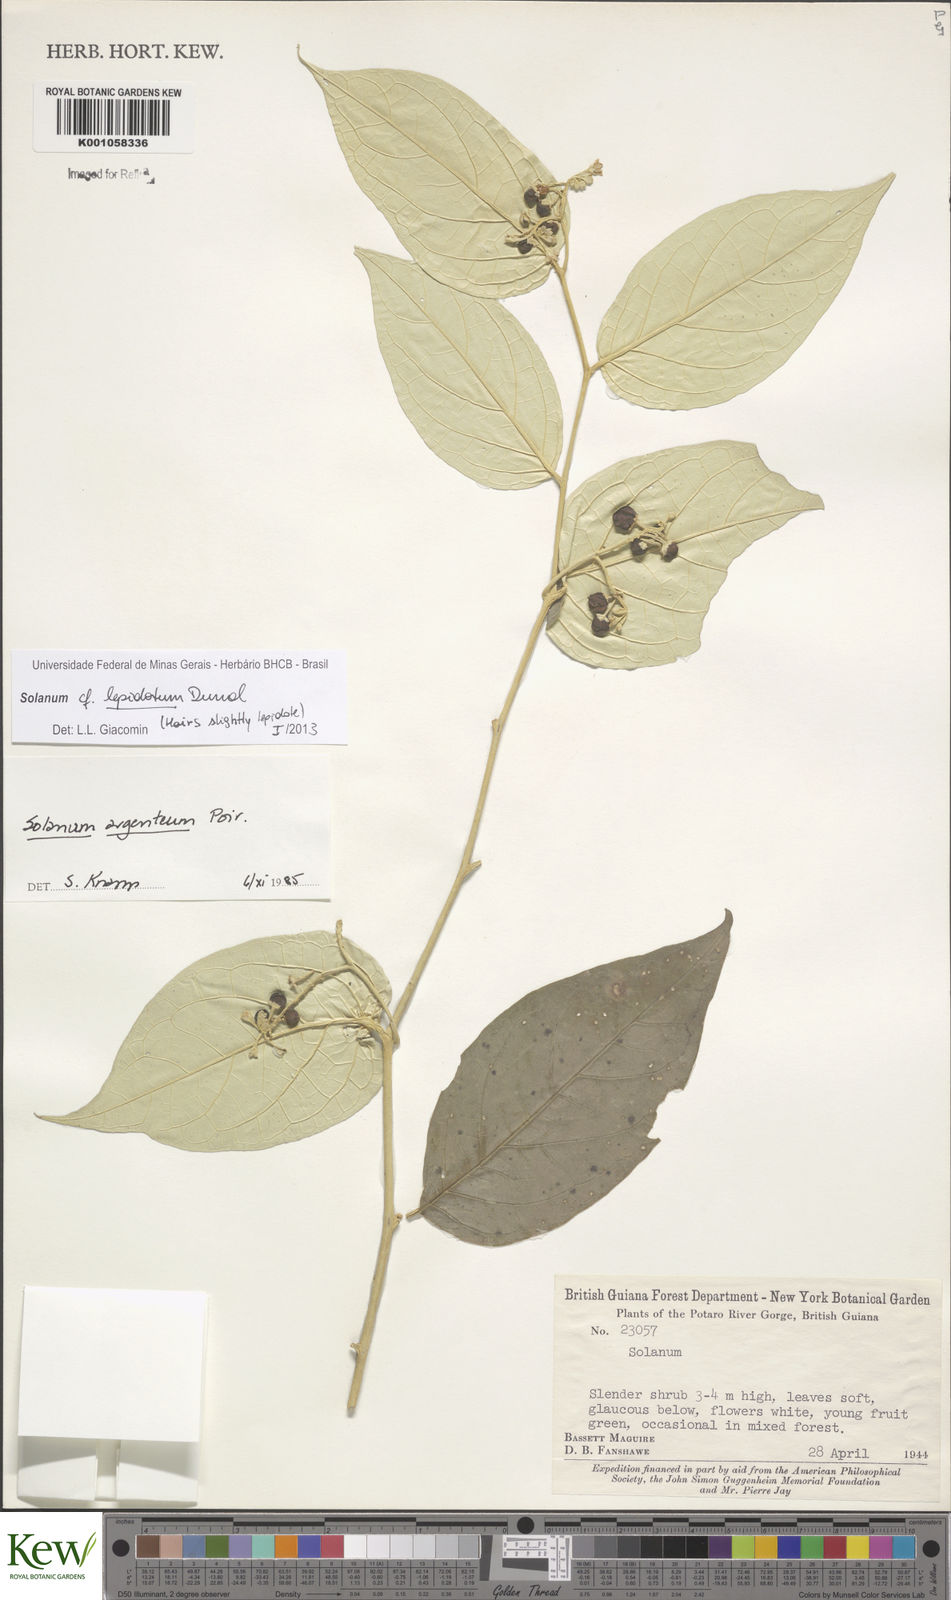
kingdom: Plantae
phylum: Tracheophyta
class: Magnoliopsida
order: Solanales
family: Solanaceae
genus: Solanum
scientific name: Solanum lepidotum
